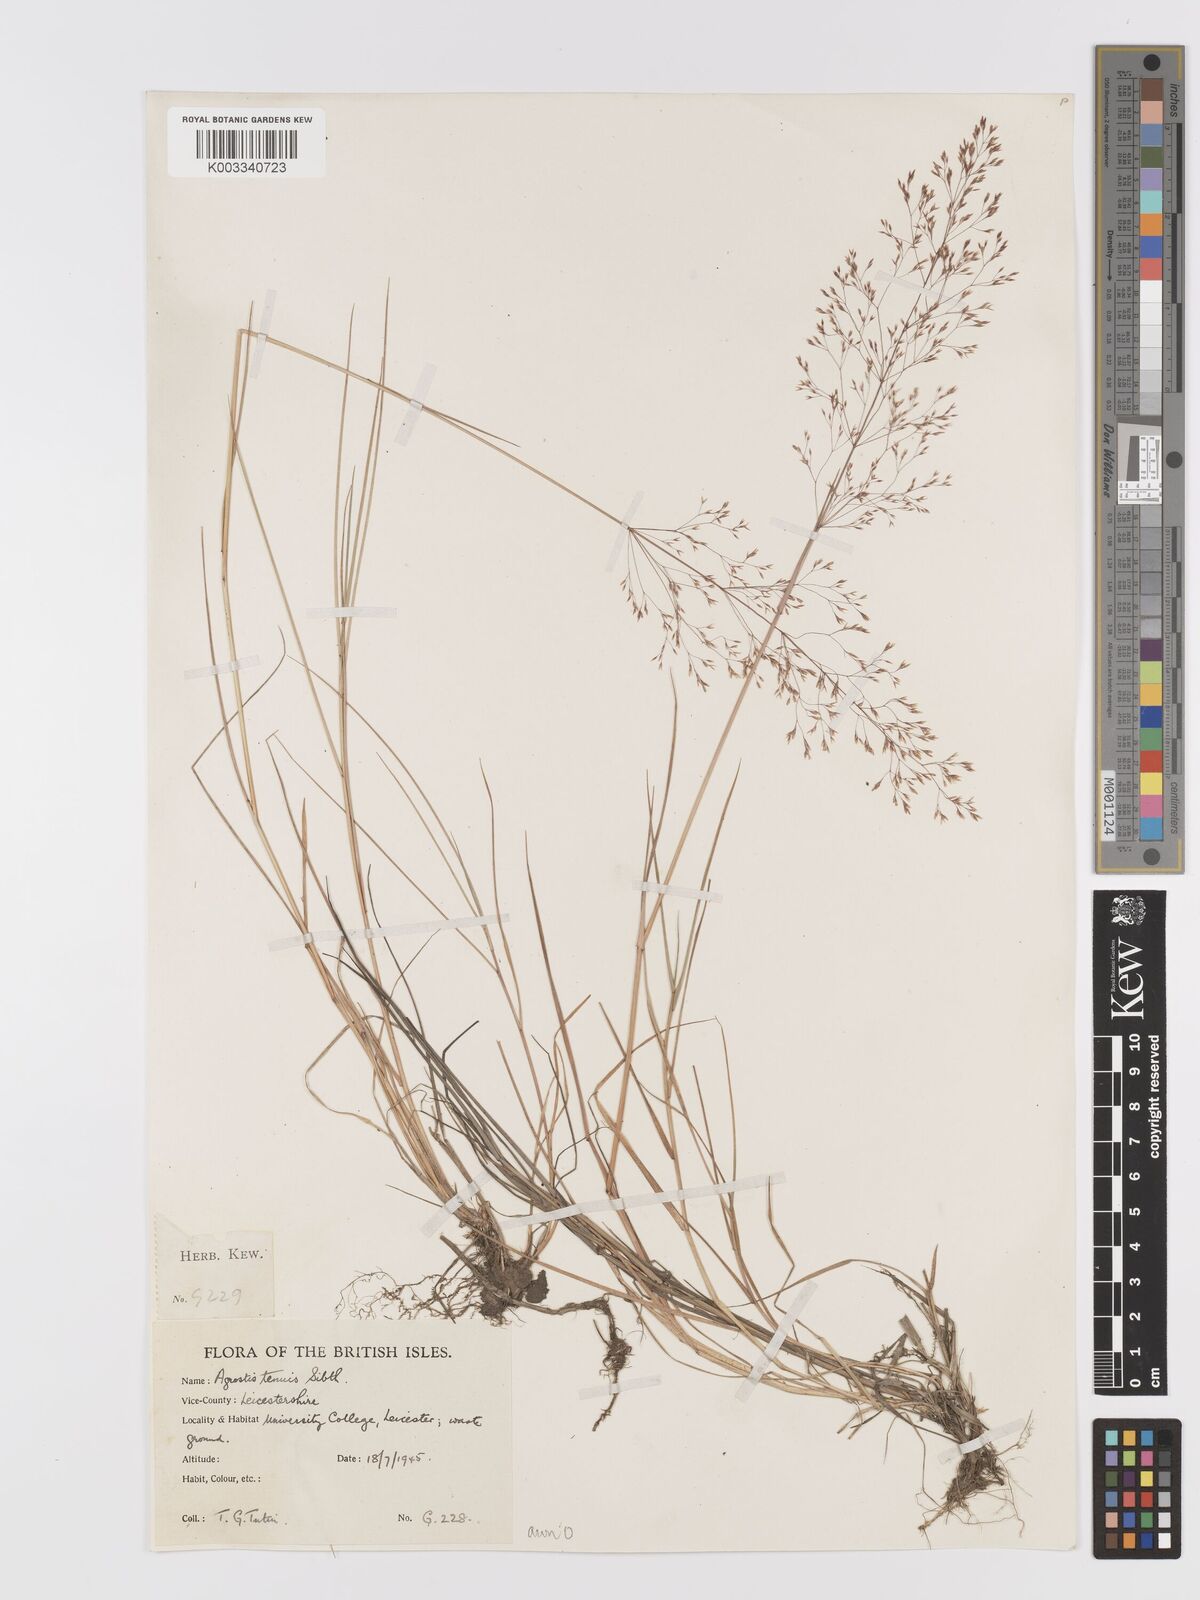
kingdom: Plantae
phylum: Tracheophyta
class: Liliopsida
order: Poales
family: Poaceae
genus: Agrostis
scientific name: Agrostis capillaris
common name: Colonial bentgrass
